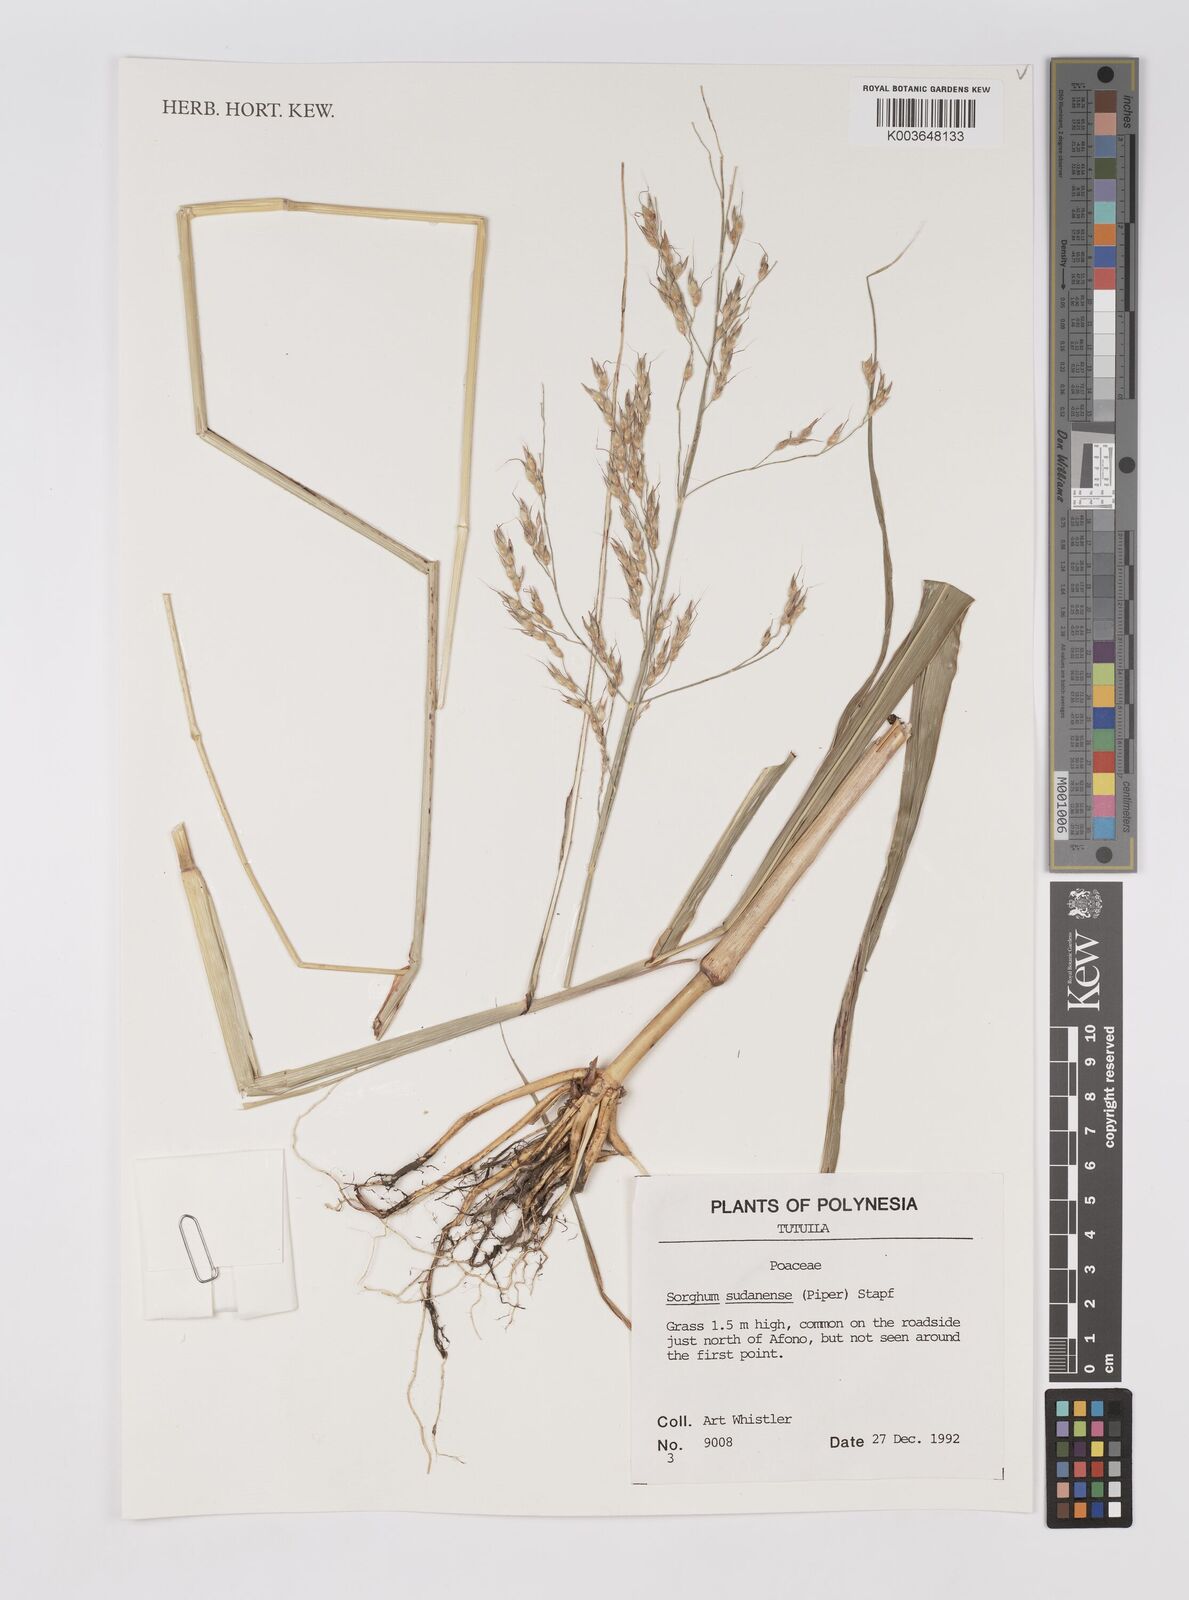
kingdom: Plantae
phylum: Tracheophyta
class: Liliopsida
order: Poales
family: Poaceae
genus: Sorghum
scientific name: Sorghum drummondii
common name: Sudangrass
